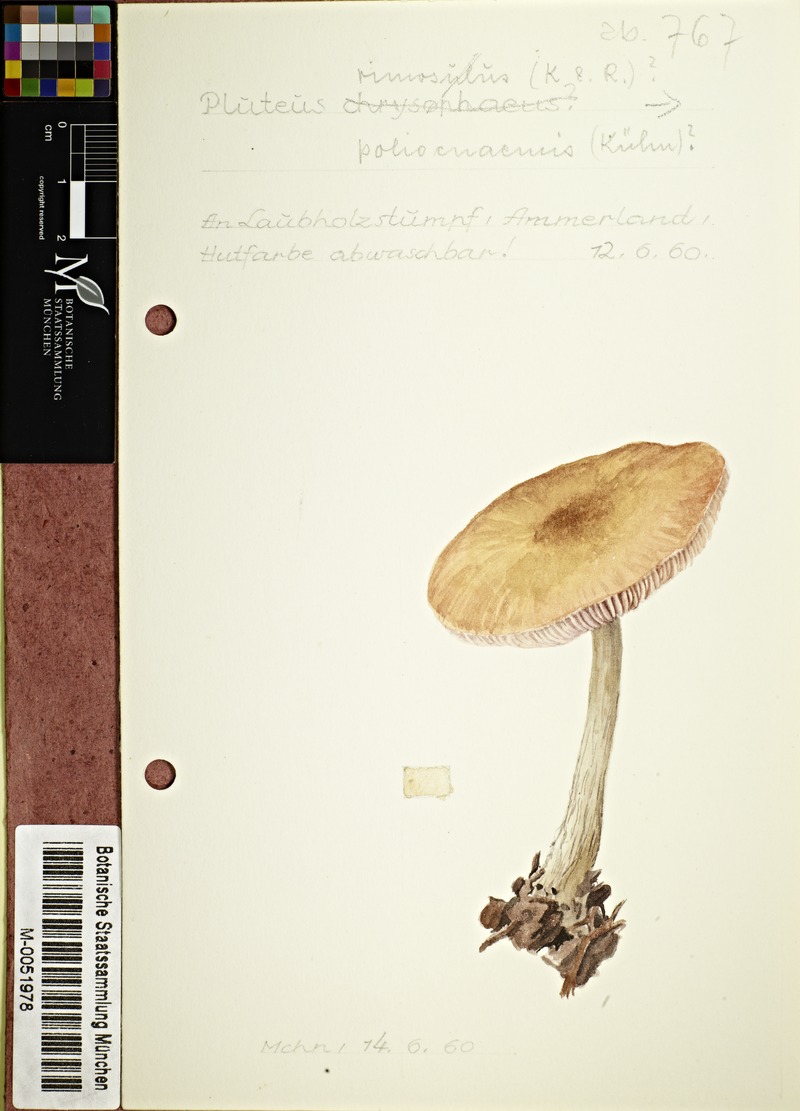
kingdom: Fungi
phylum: Basidiomycota
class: Agaricomycetes
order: Agaricales
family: Pluteaceae
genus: Pluteus
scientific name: Pluteus poliocnemis
